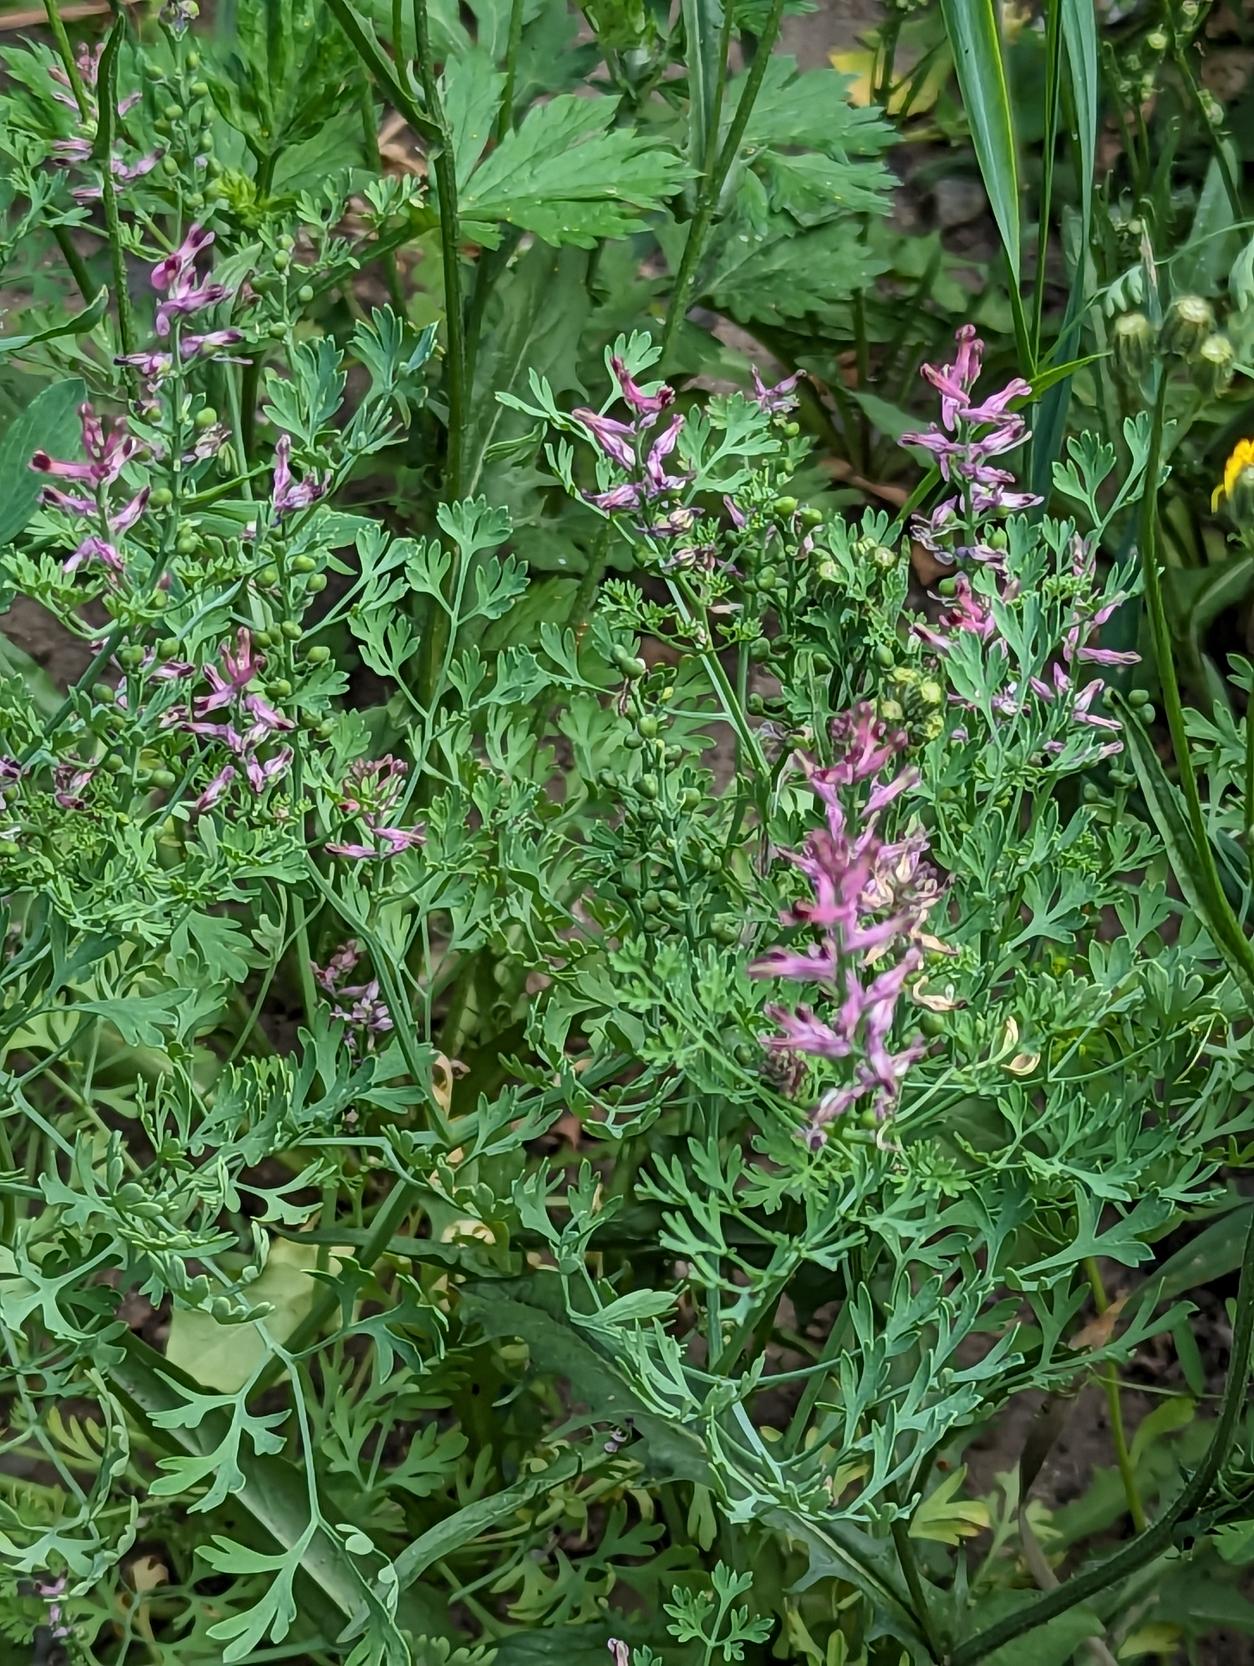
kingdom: Plantae
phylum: Tracheophyta
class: Magnoliopsida
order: Ranunculales
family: Papaveraceae
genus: Fumaria
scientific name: Fumaria officinalis
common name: Læge-jordrøg
